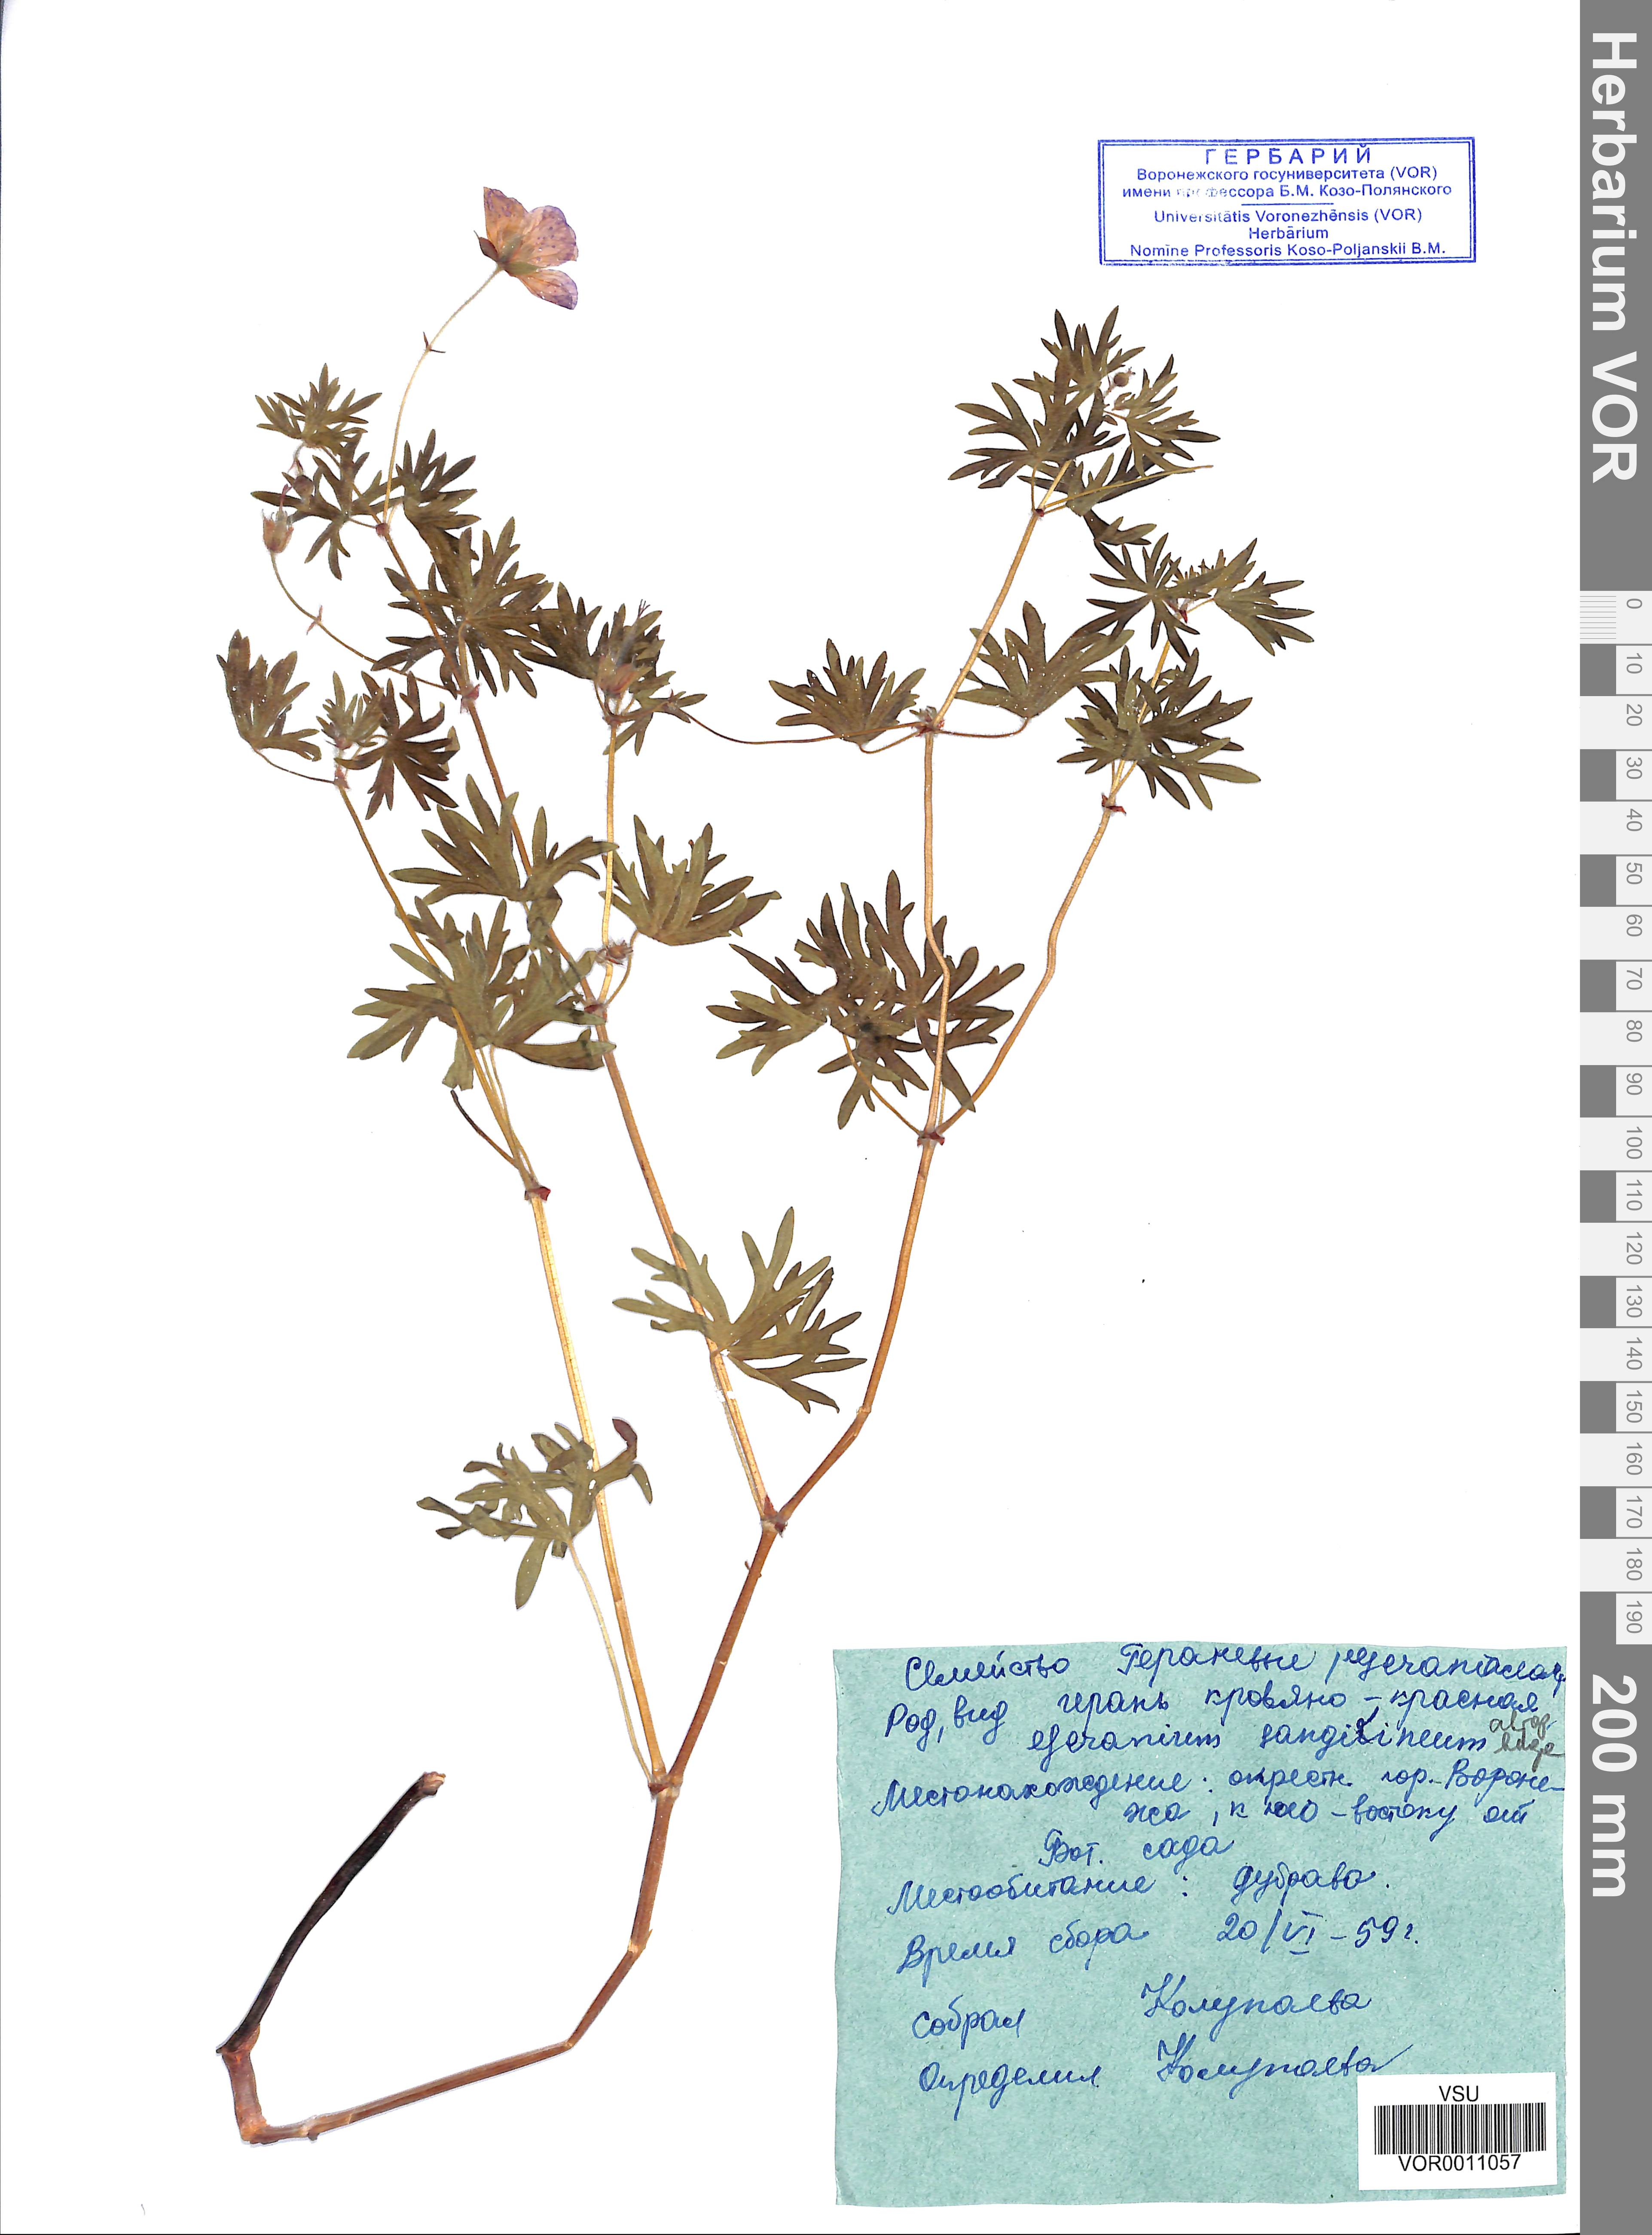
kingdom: Plantae
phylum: Tracheophyta
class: Magnoliopsida
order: Geraniales
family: Geraniaceae
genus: Geranium
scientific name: Geranium sanguineum
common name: Bloody crane's-bill
